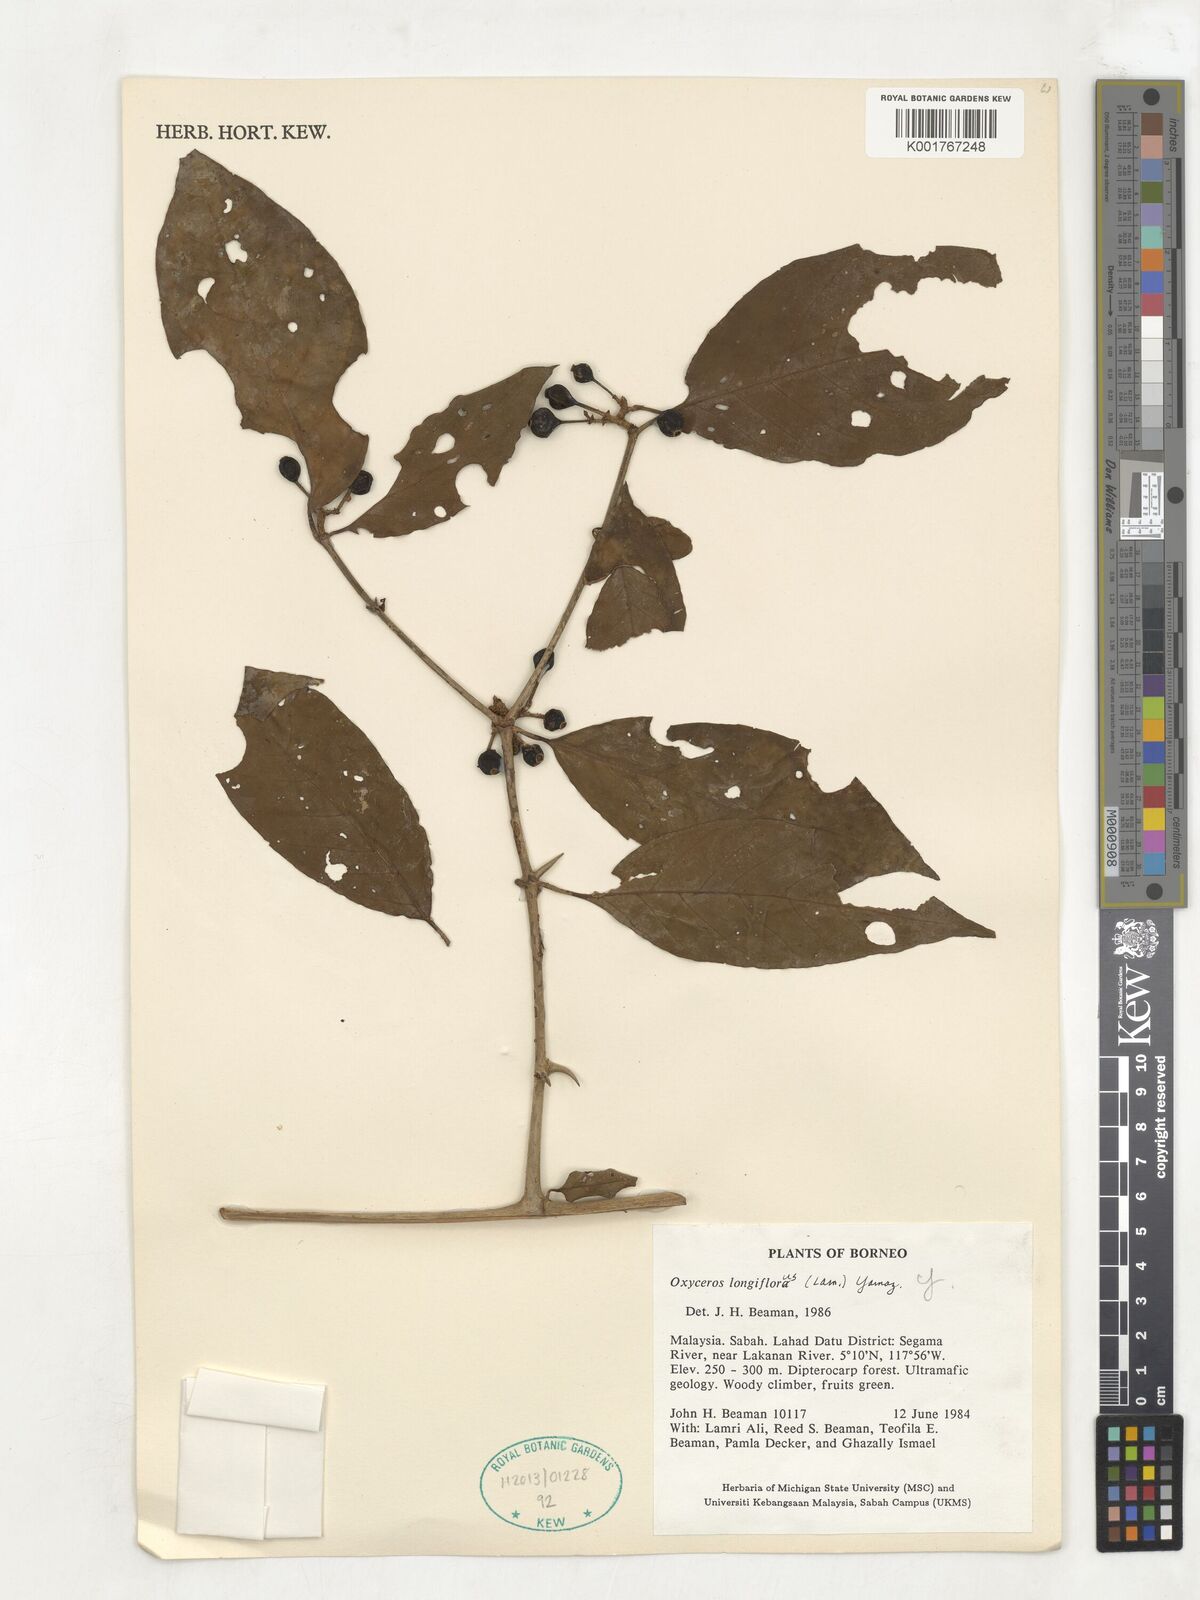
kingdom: Plantae
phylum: Tracheophyta
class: Magnoliopsida
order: Gentianales
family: Rubiaceae
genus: Oxyceros
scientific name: Oxyceros longiflorus
